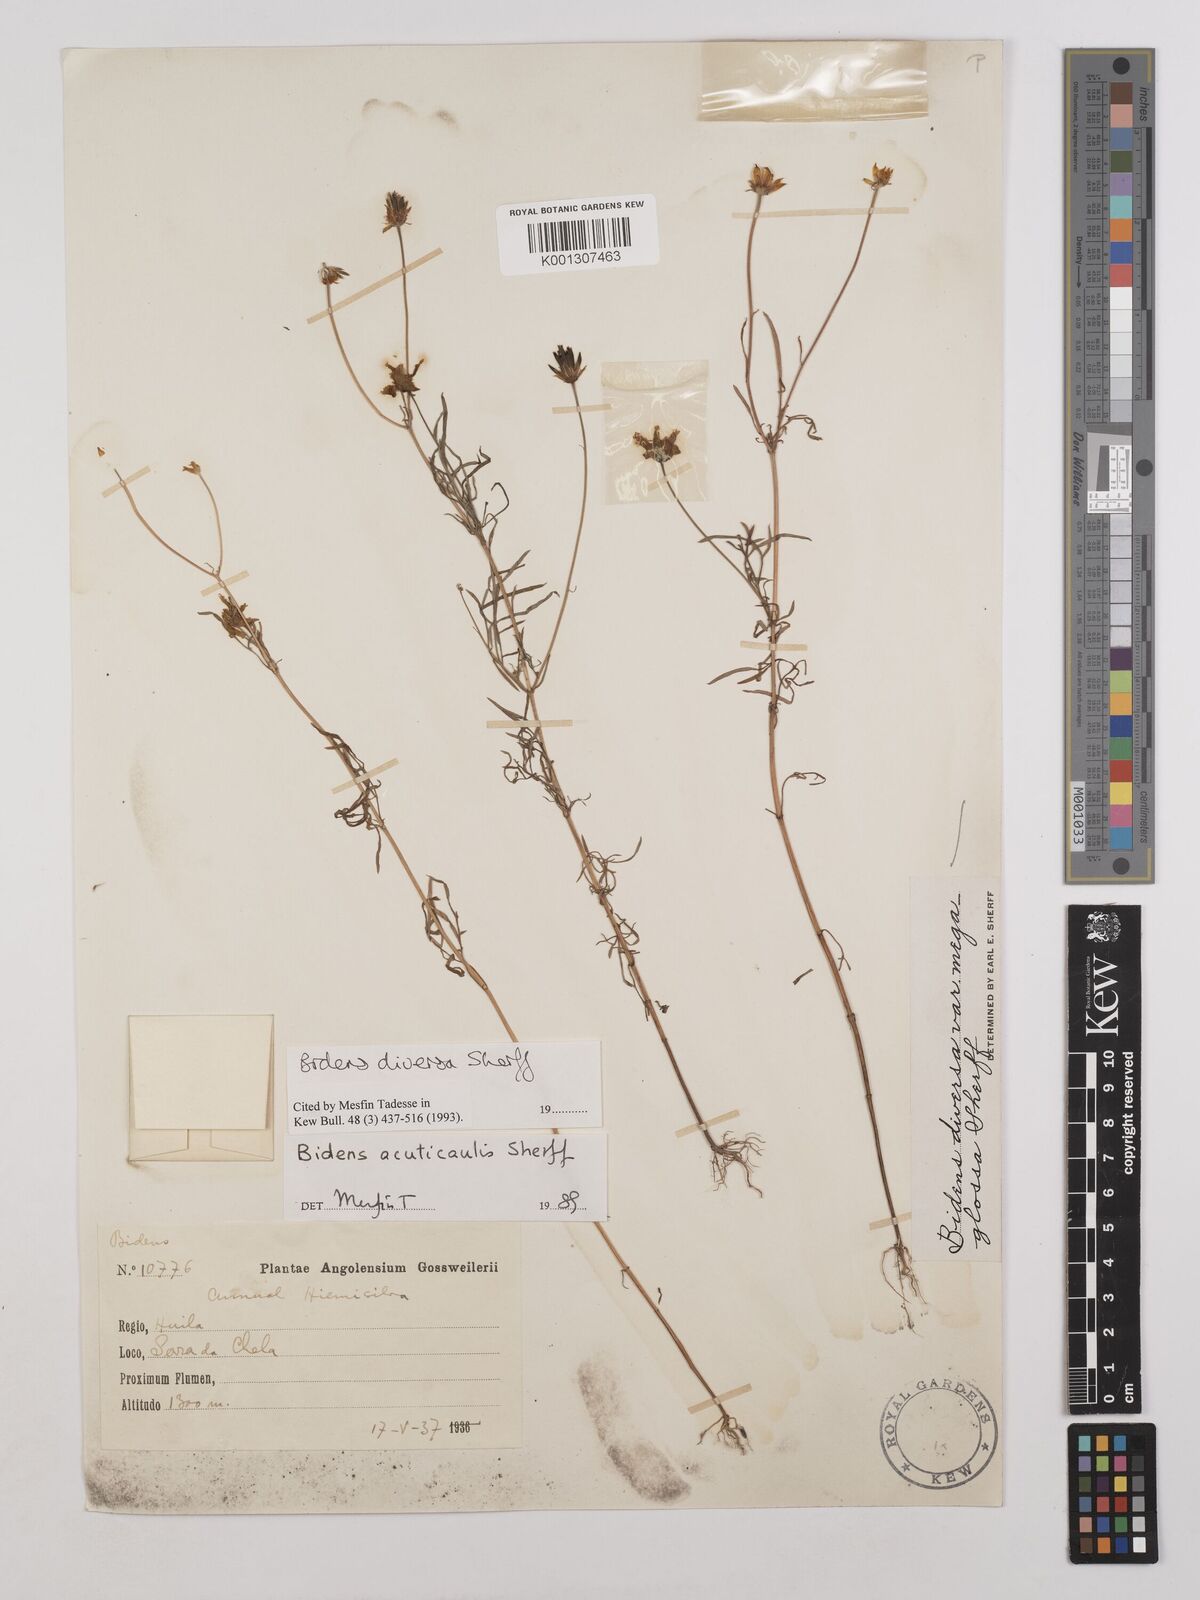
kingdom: Plantae
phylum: Tracheophyta
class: Magnoliopsida
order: Asterales
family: Asteraceae
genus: Bidens
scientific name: Bidens diversa
